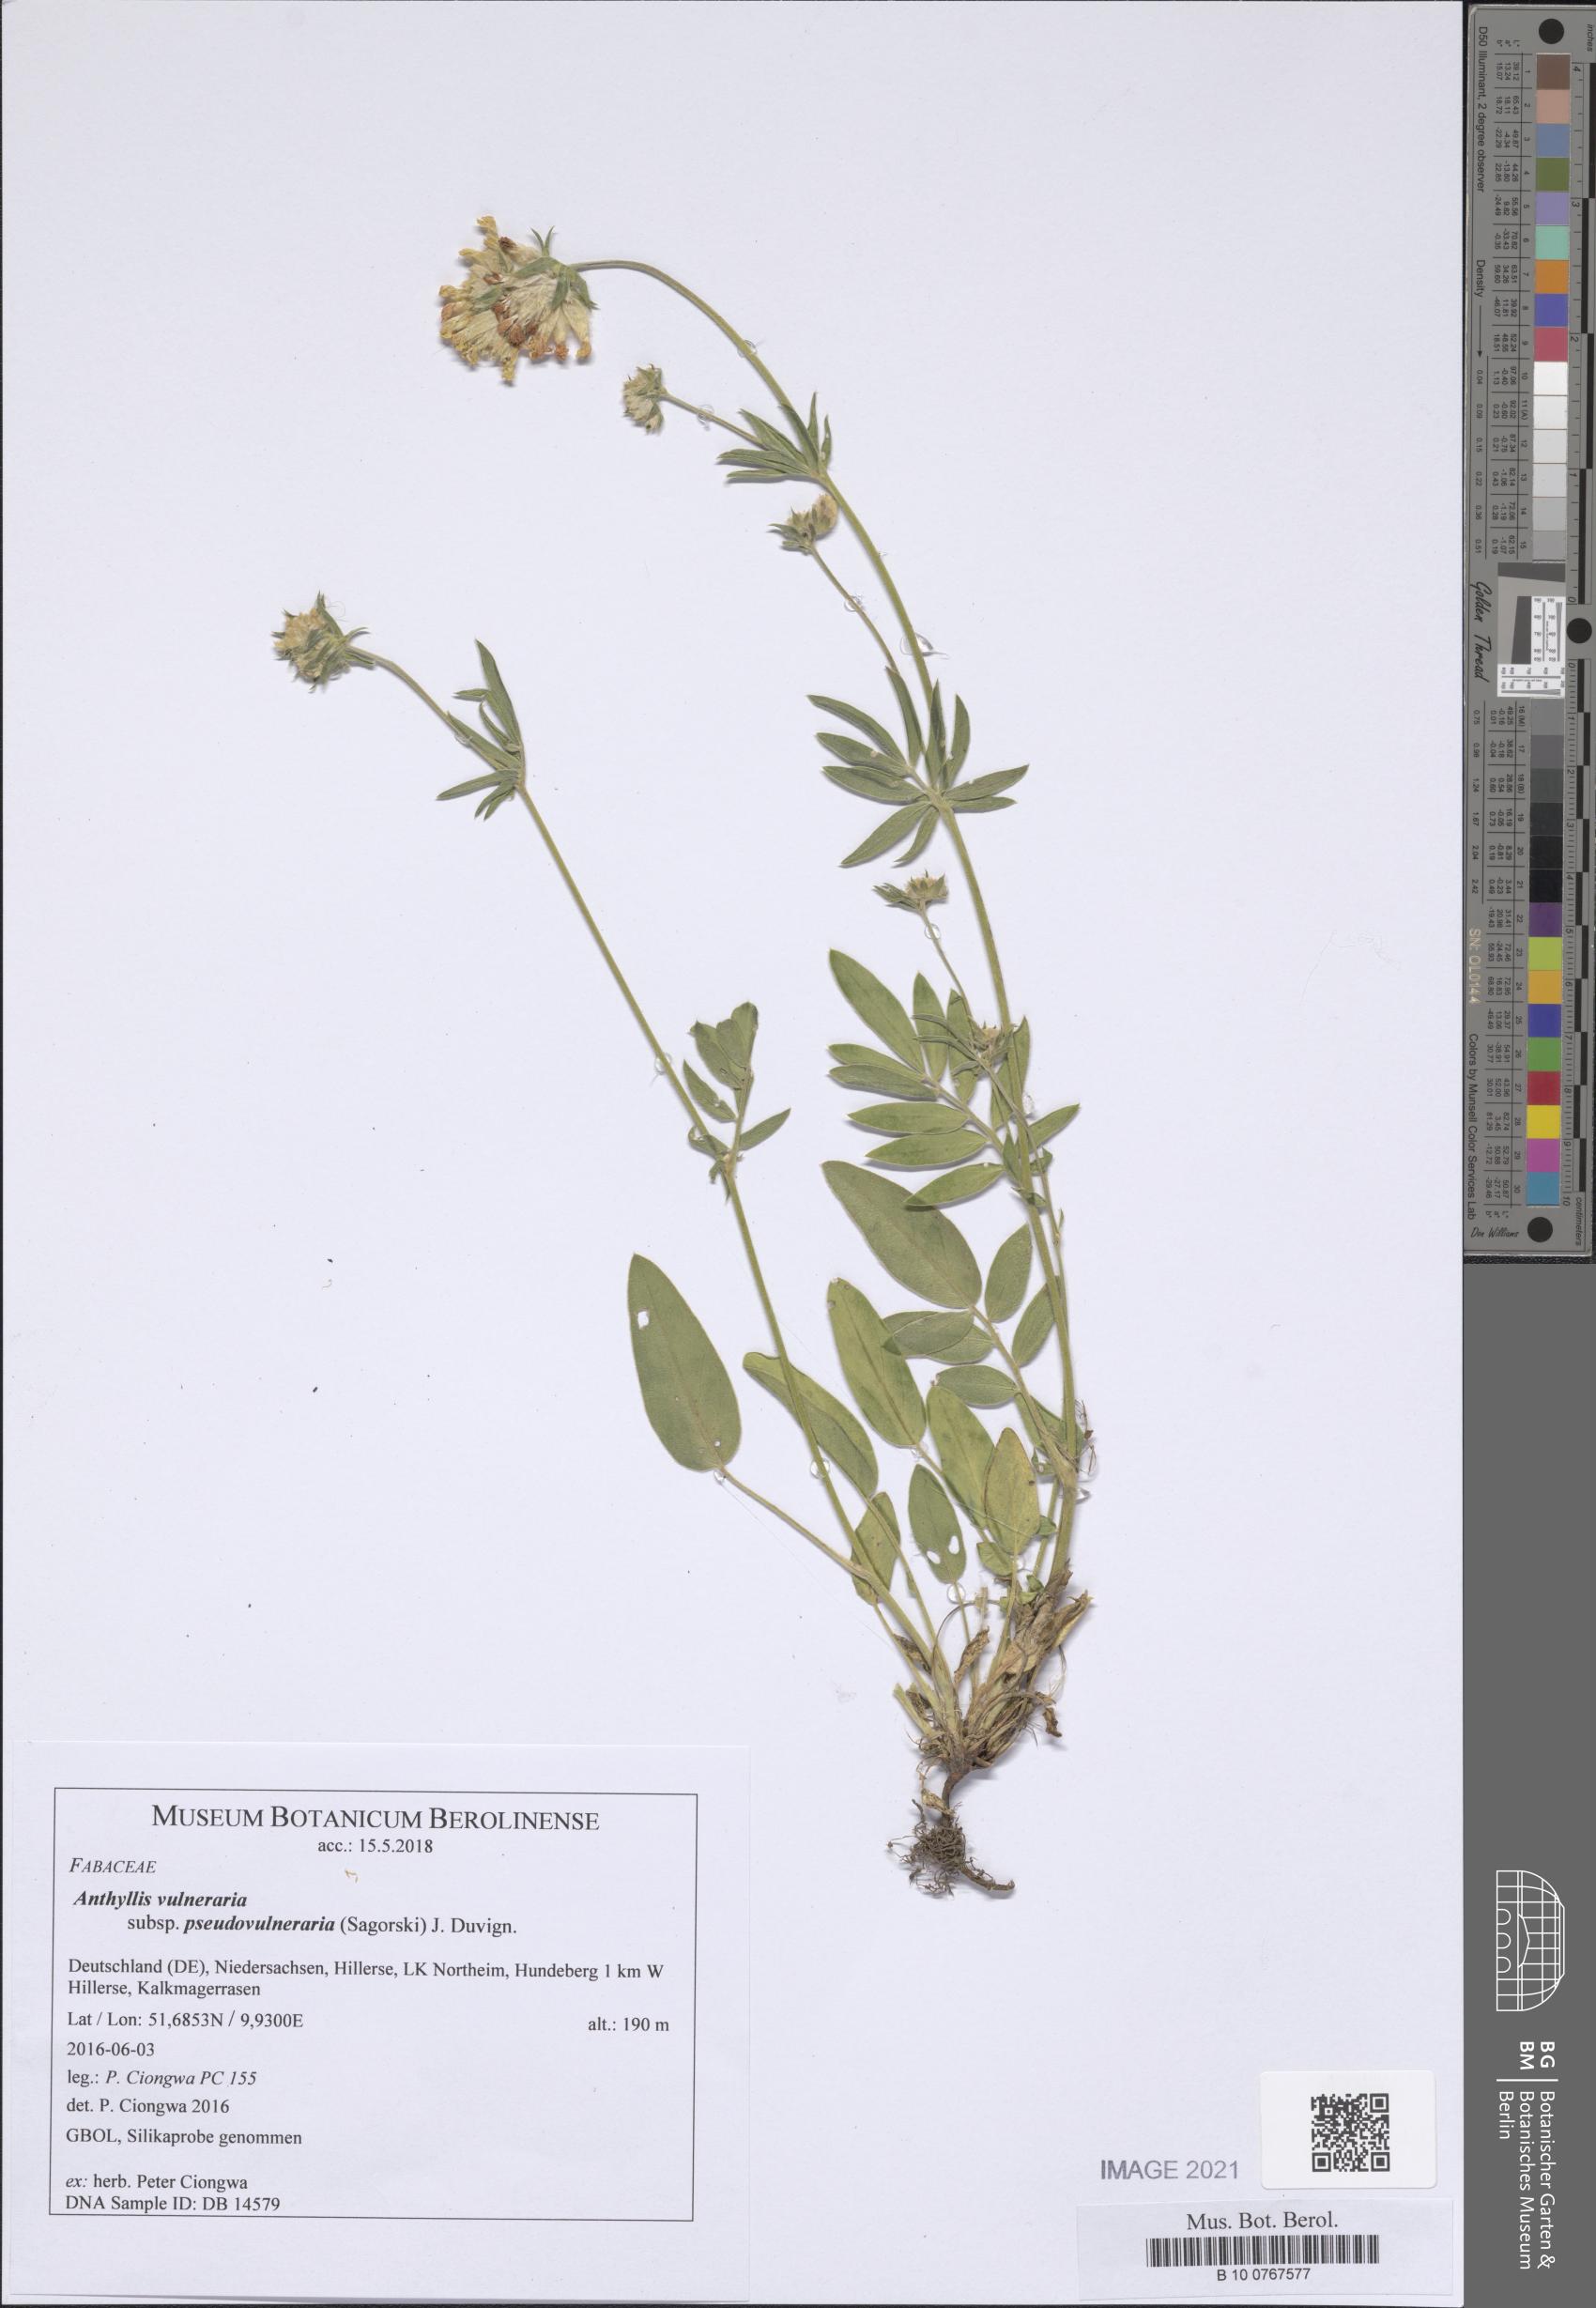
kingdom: Plantae
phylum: Tracheophyta
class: Magnoliopsida
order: Fabales
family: Fabaceae
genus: Anthyllis
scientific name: Anthyllis vulneraria
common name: Kidney vetch
